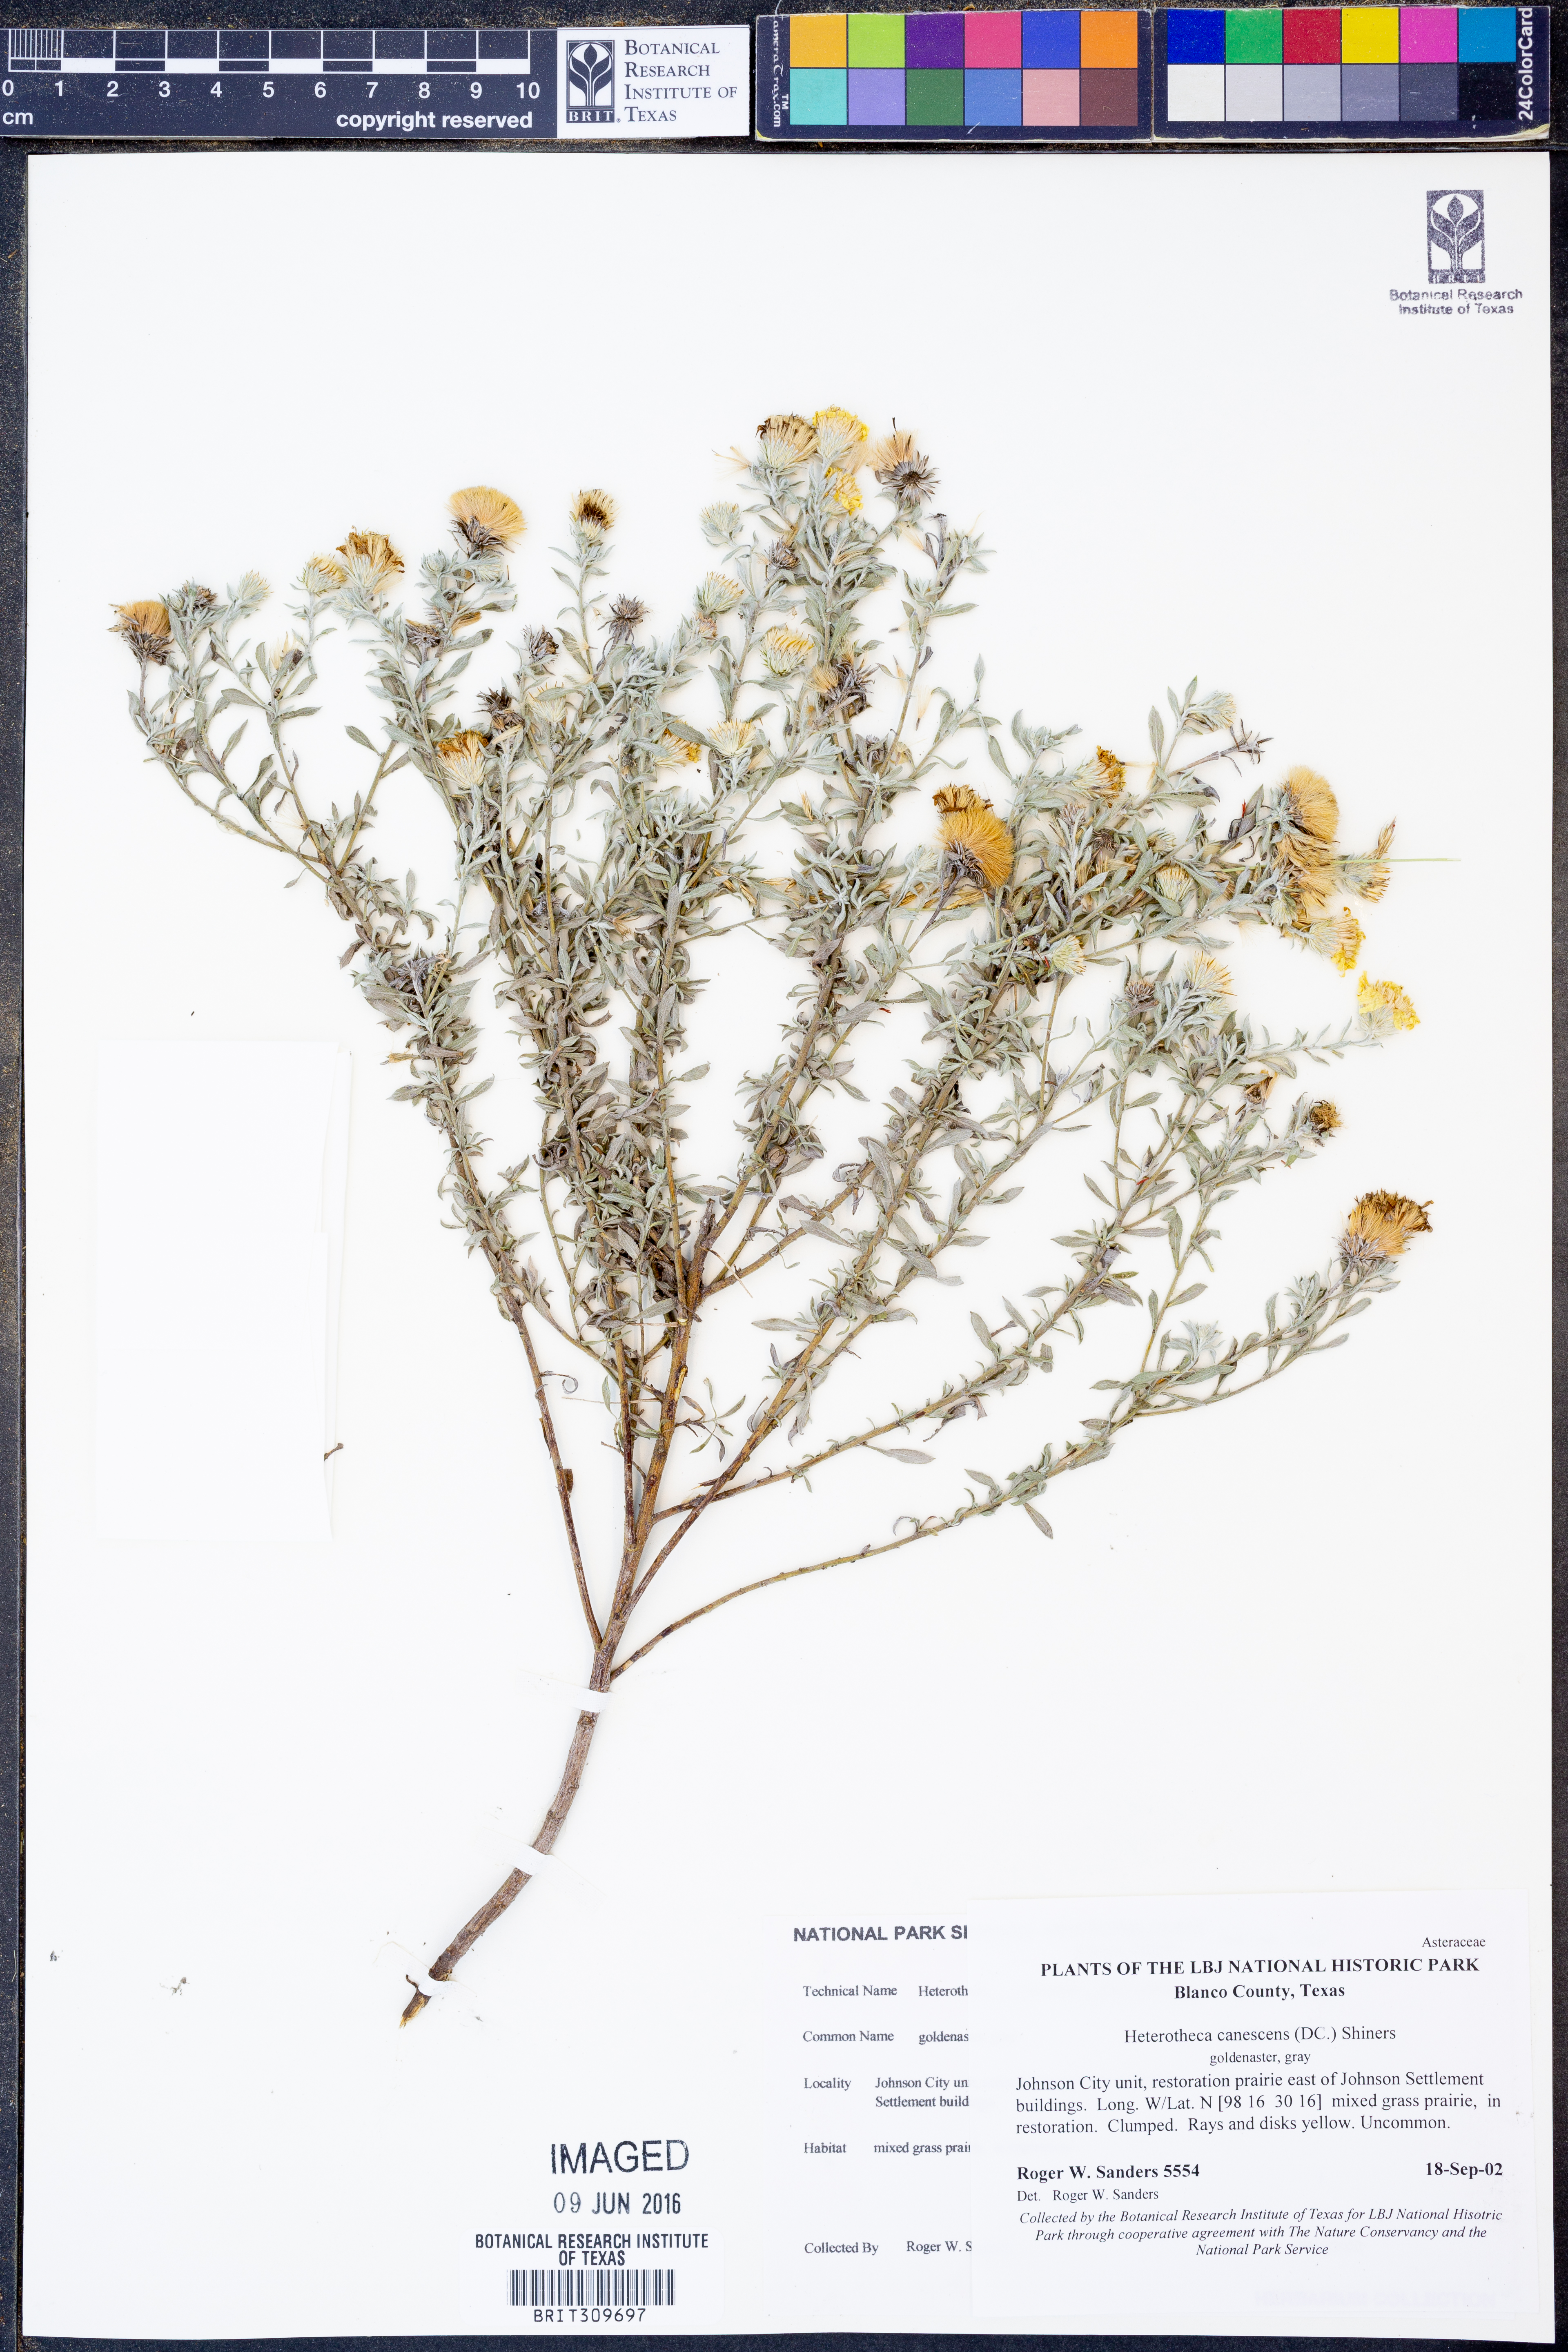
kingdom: Plantae
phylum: Tracheophyta
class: Magnoliopsida
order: Asterales
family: Asteraceae
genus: Heterotheca
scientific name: Heterotheca canescens
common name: Hoary golden-aster
